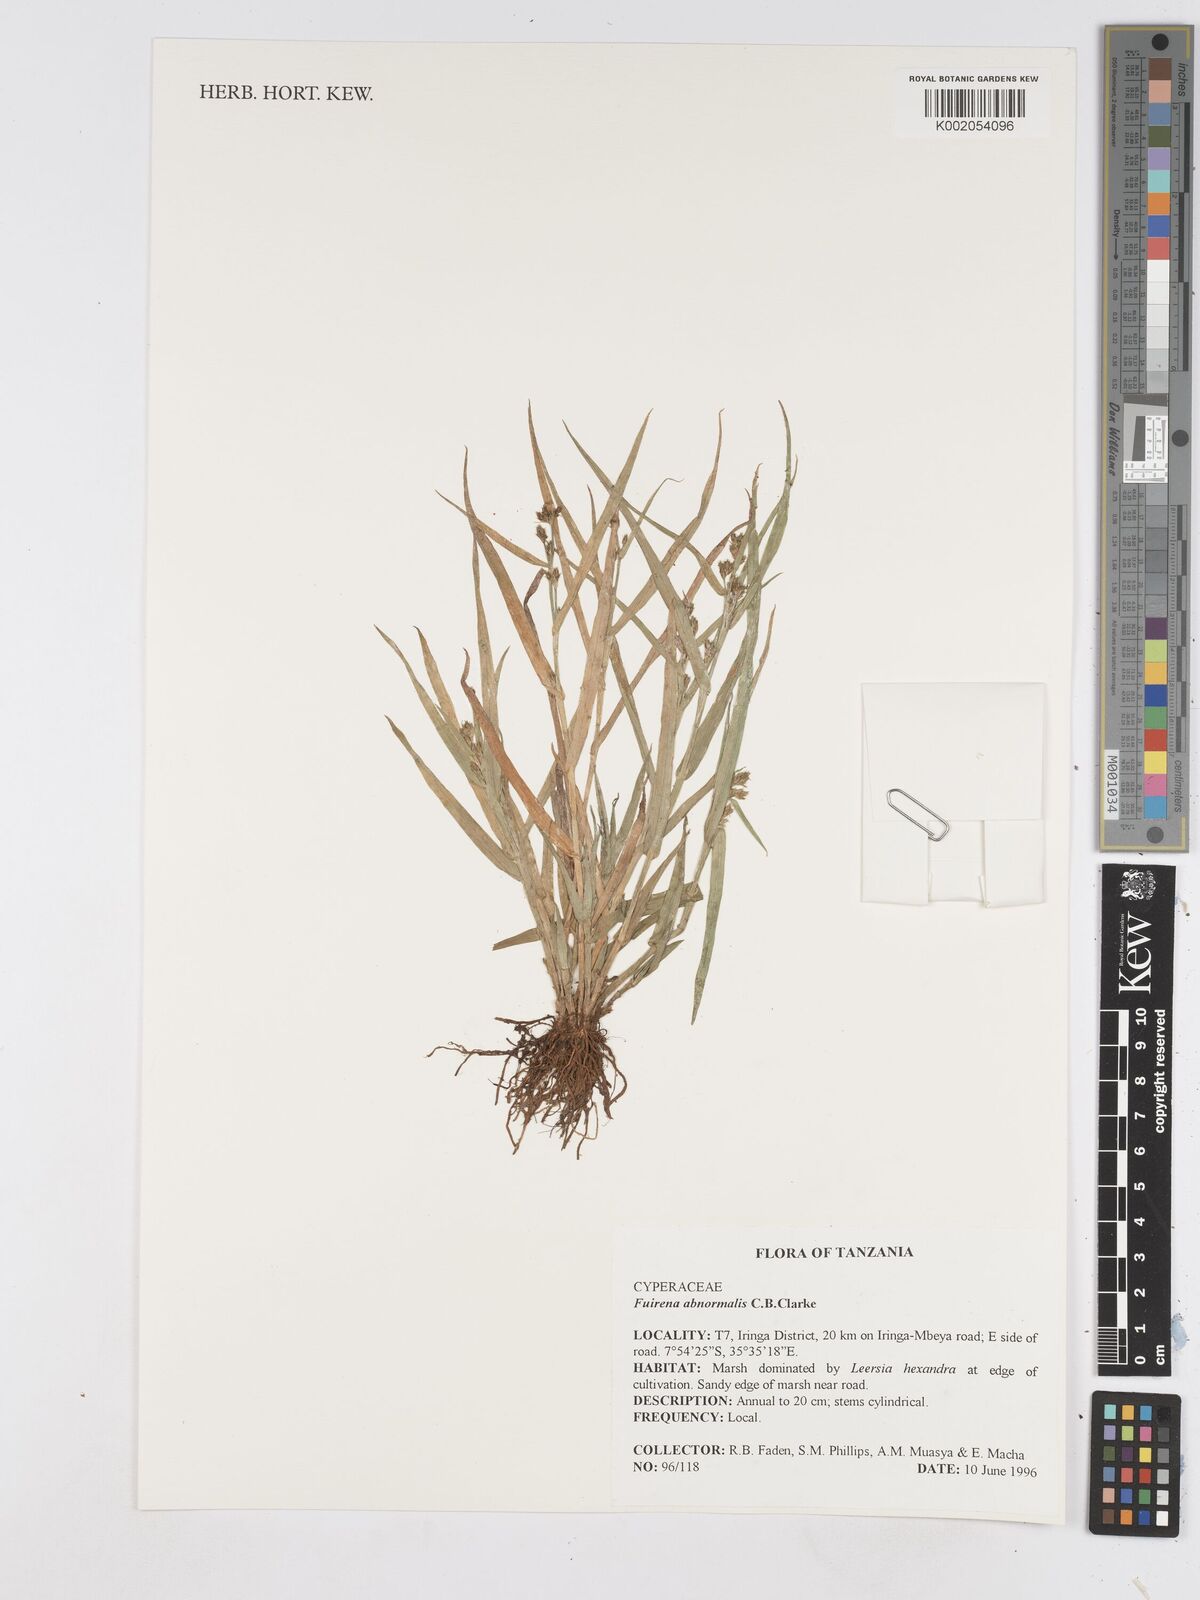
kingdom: Plantae
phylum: Tracheophyta
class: Liliopsida
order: Poales
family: Cyperaceae
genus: Fuirena
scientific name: Fuirena abnormalis
